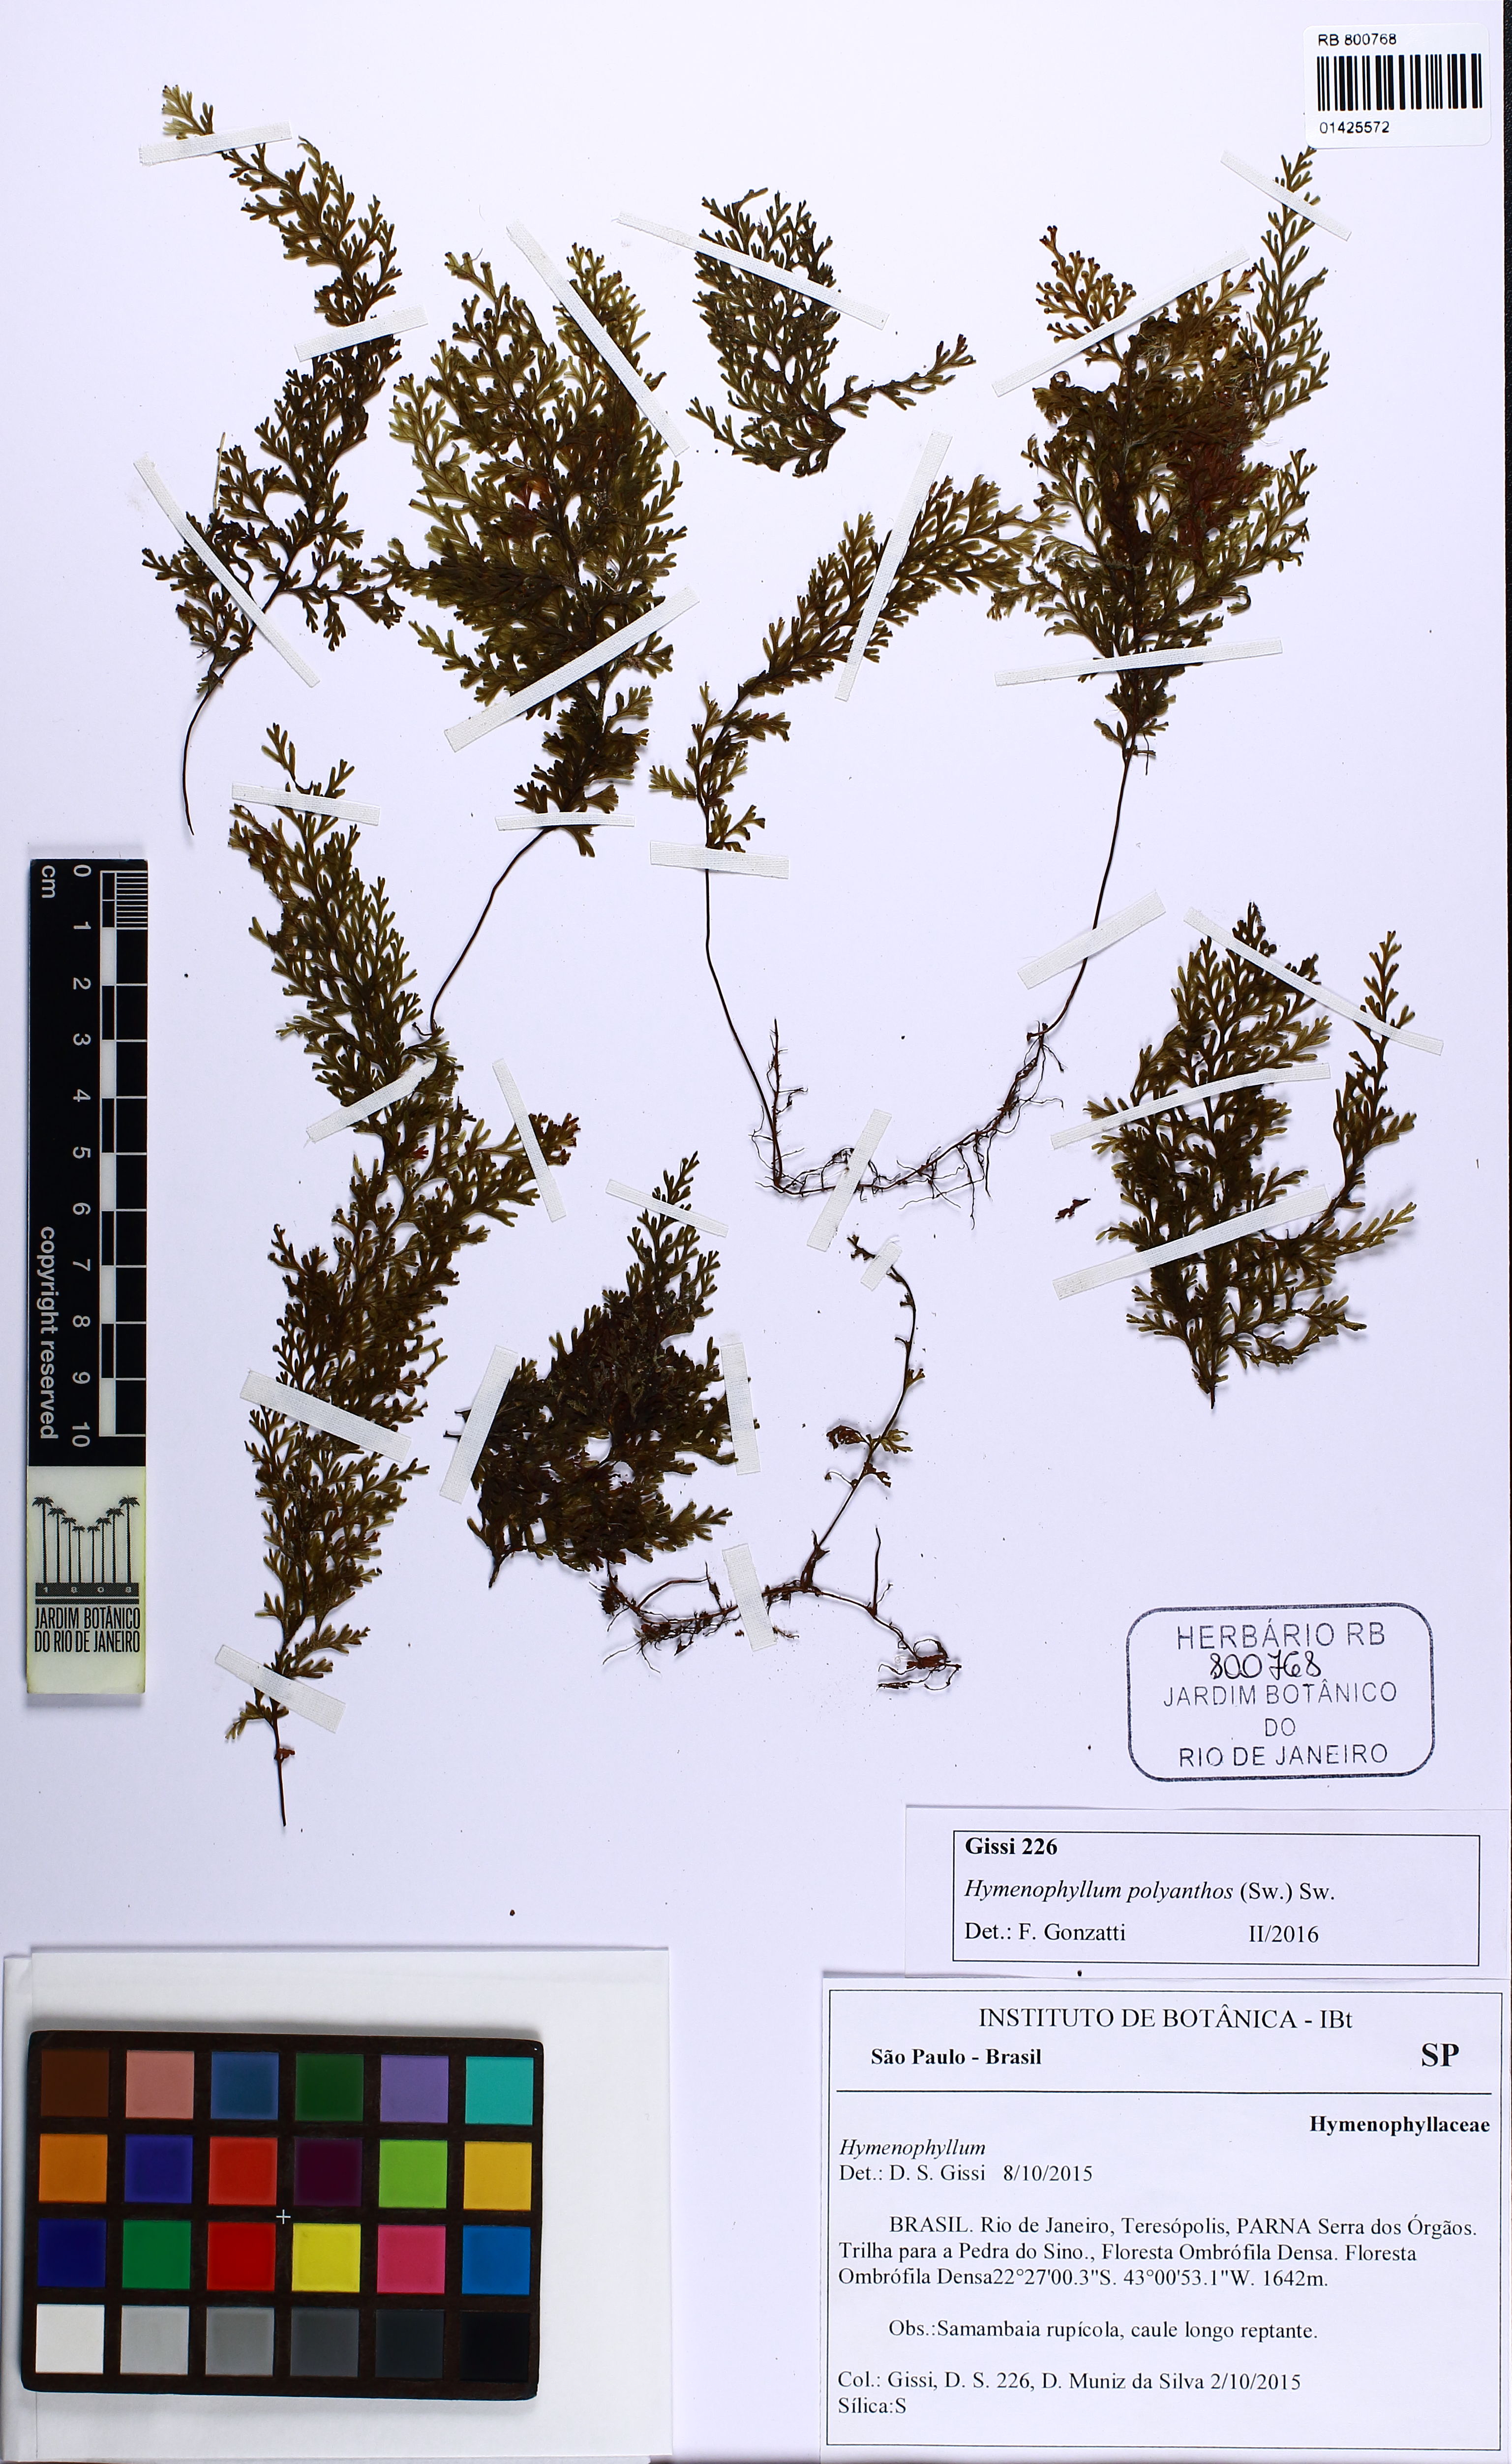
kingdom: Plantae
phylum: Tracheophyta
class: Polypodiopsida
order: Hymenophyllales
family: Hymenophyllaceae
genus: Hymenophyllum
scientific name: Hymenophyllum polyanthos
